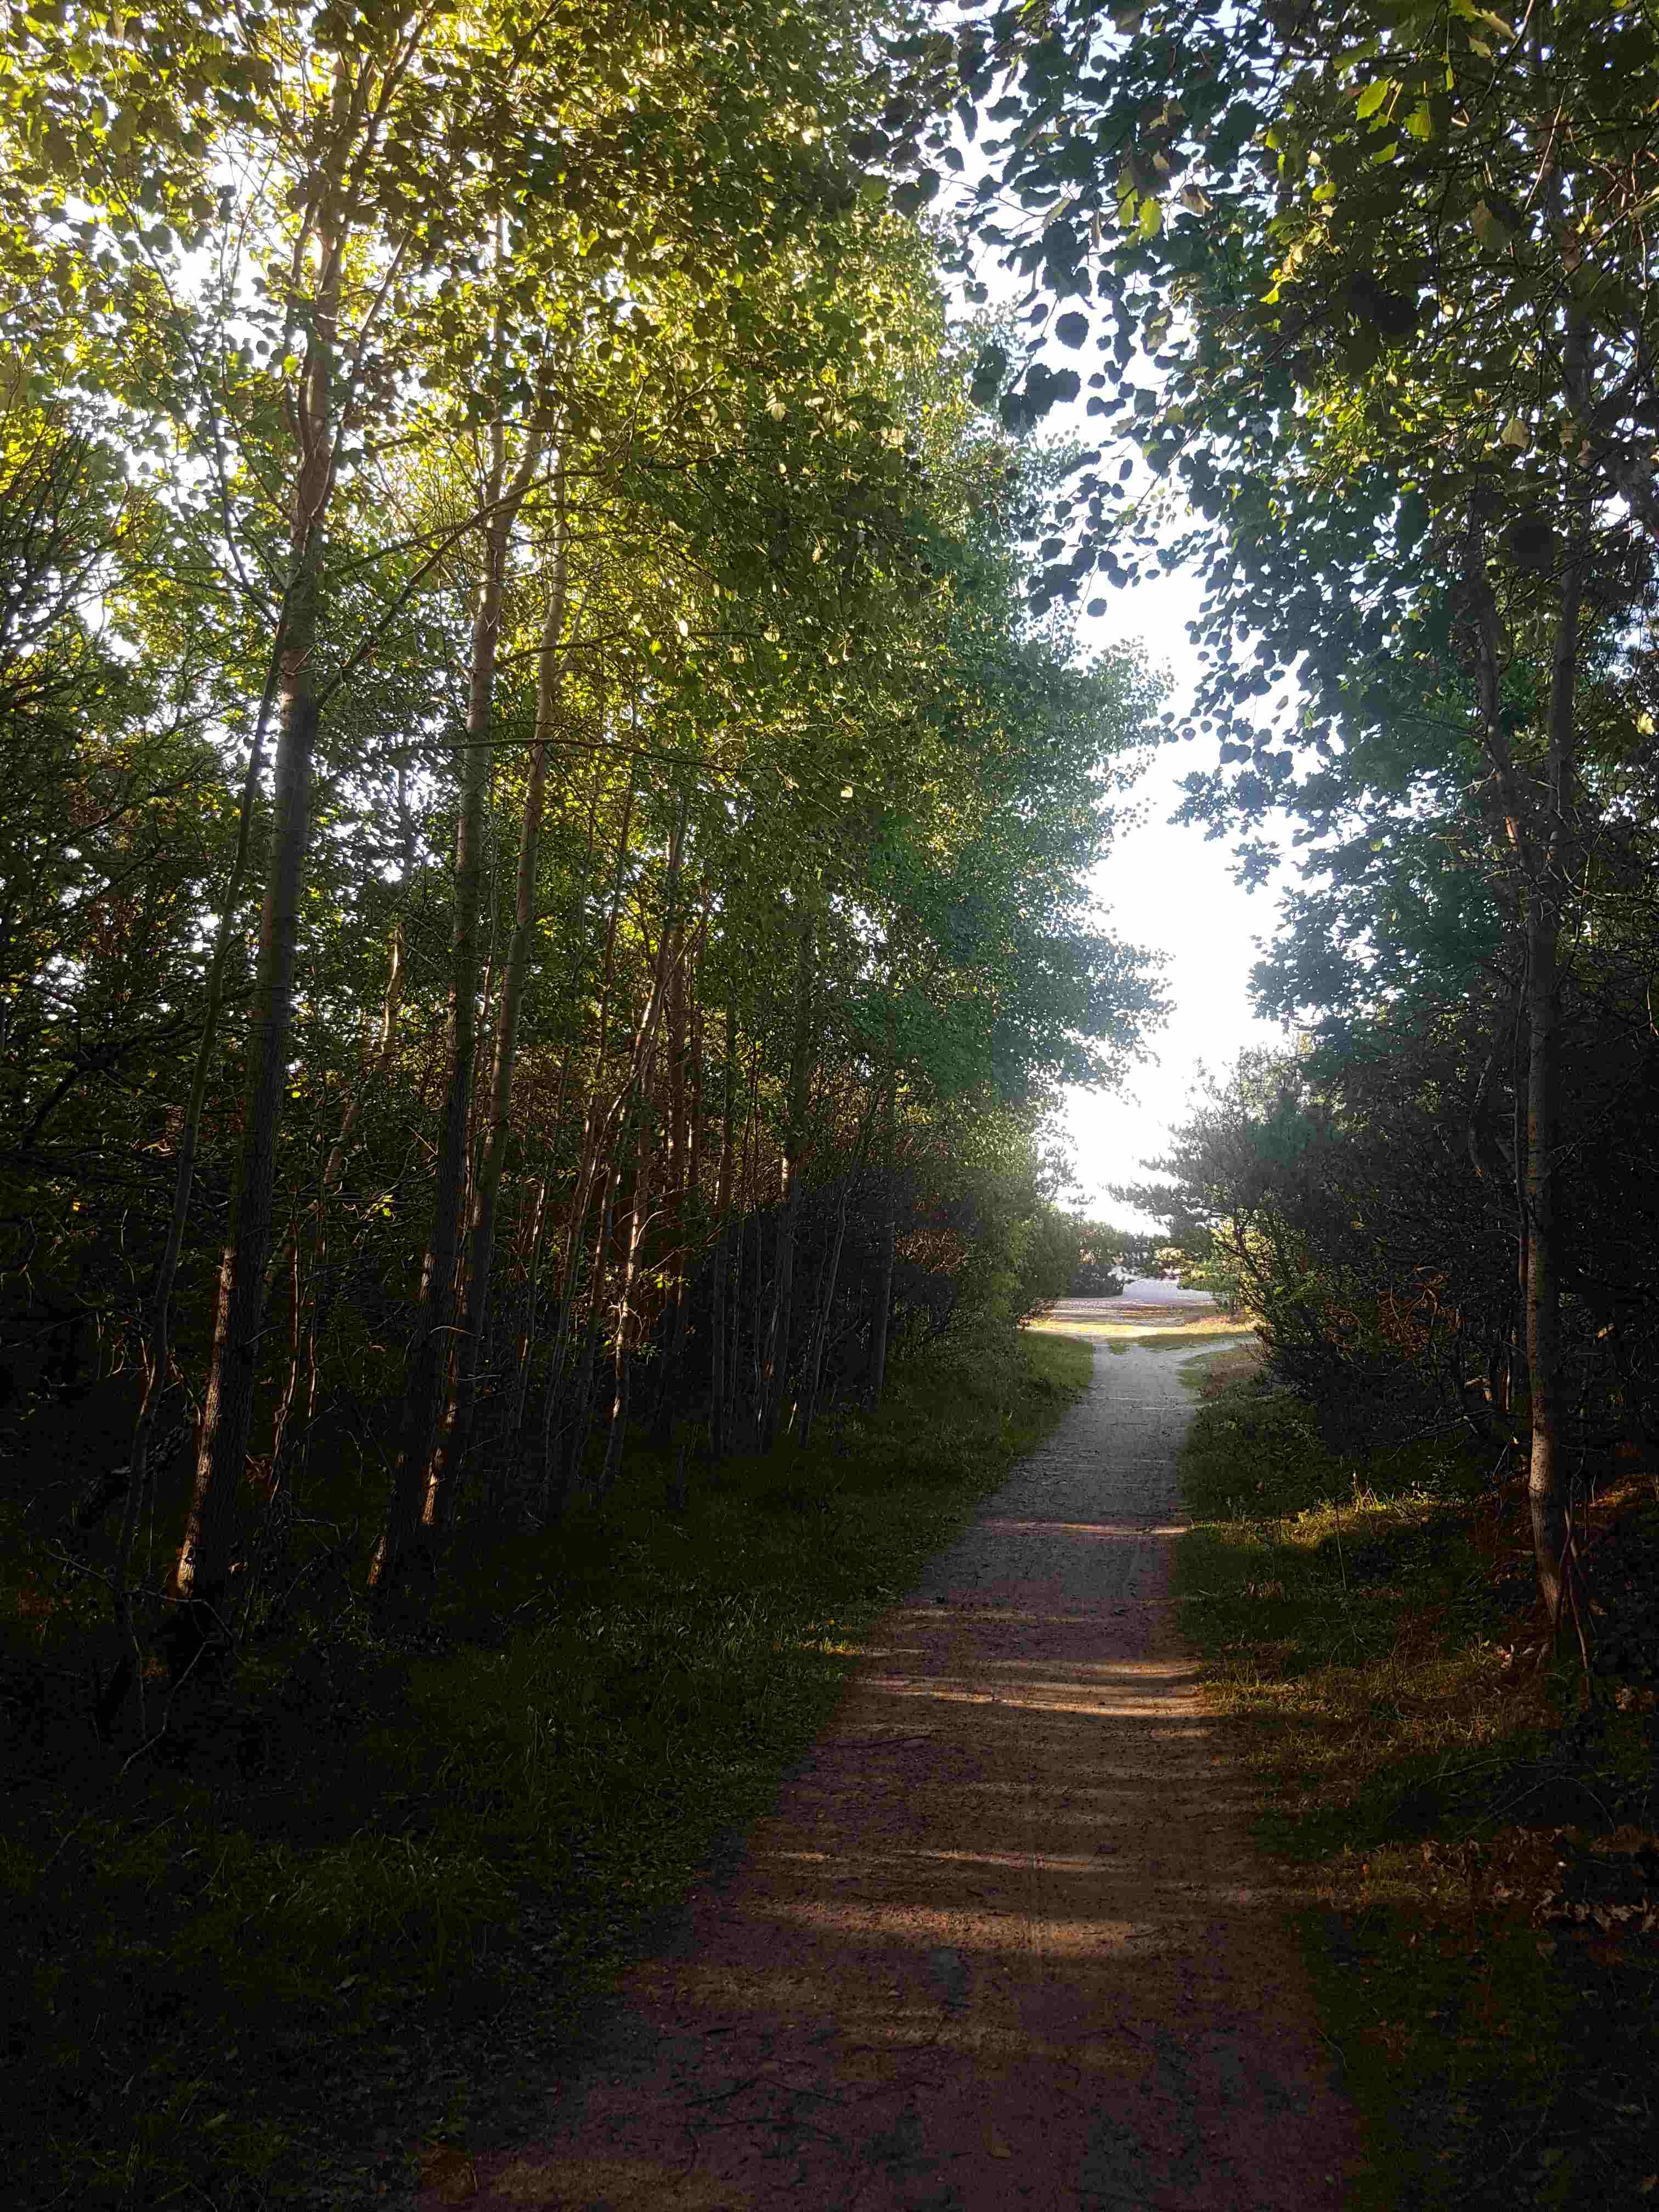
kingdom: Fungi
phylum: Basidiomycota
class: Agaricomycetes
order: Boletales
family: Boletaceae
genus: Leccinum
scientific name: Leccinum albostipitatum
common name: aspe-skælrørhat
